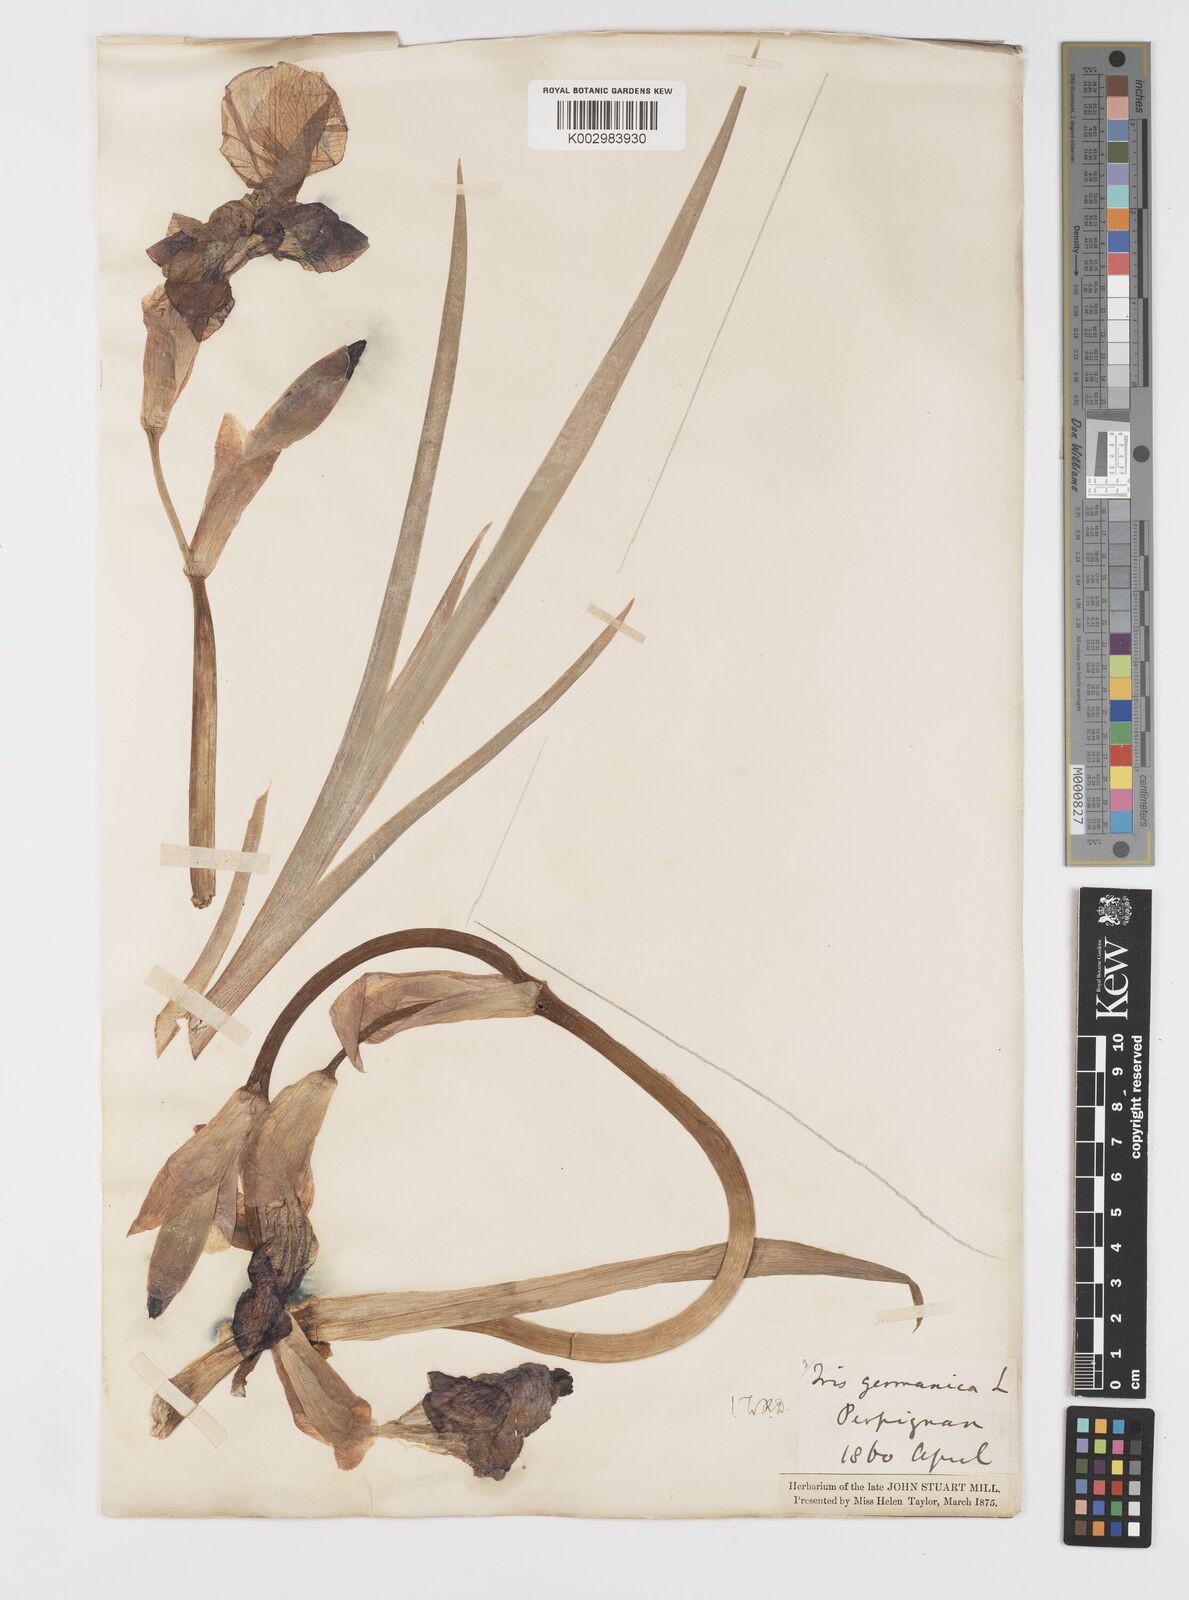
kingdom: Plantae
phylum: Tracheophyta
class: Liliopsida
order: Asparagales
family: Iridaceae
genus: Iris
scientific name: Iris germanica
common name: German iris
